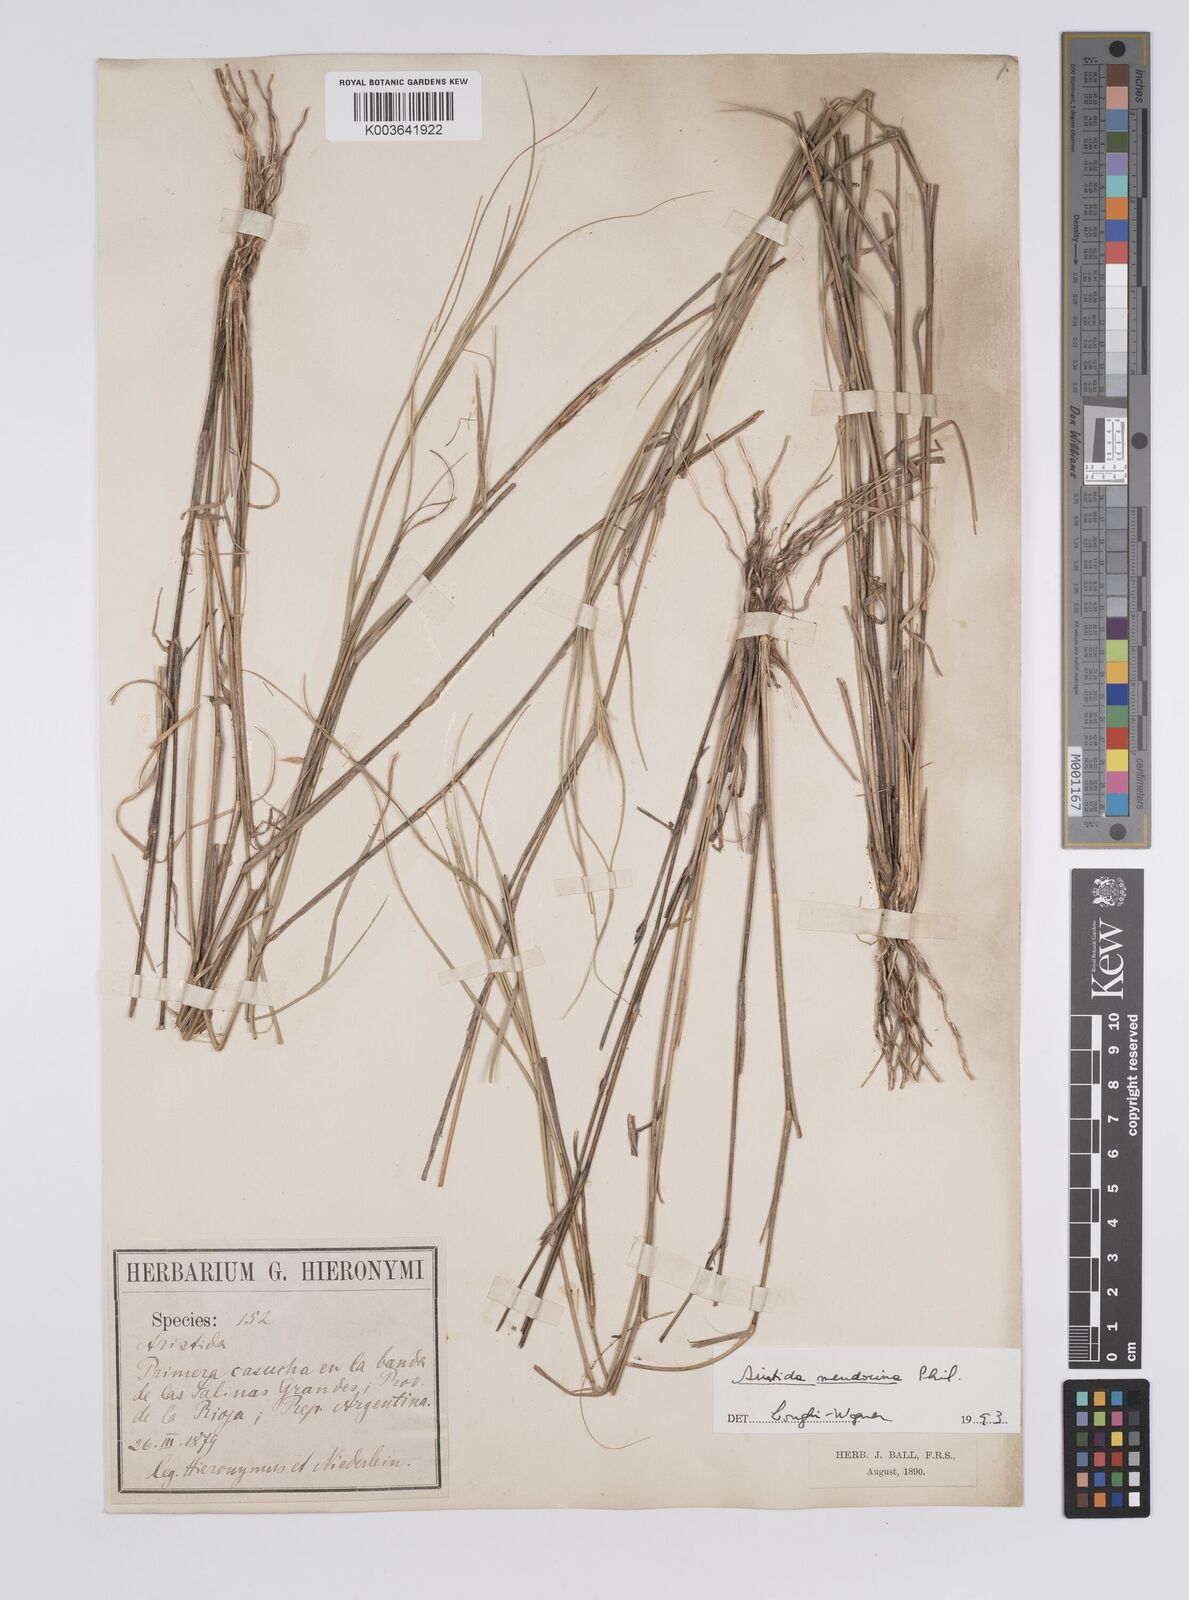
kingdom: Plantae
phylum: Tracheophyta
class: Liliopsida
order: Poales
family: Poaceae
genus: Aristida
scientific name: Aristida mendocina
